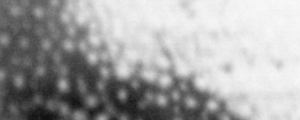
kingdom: Animalia
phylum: Chordata
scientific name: Chordata
